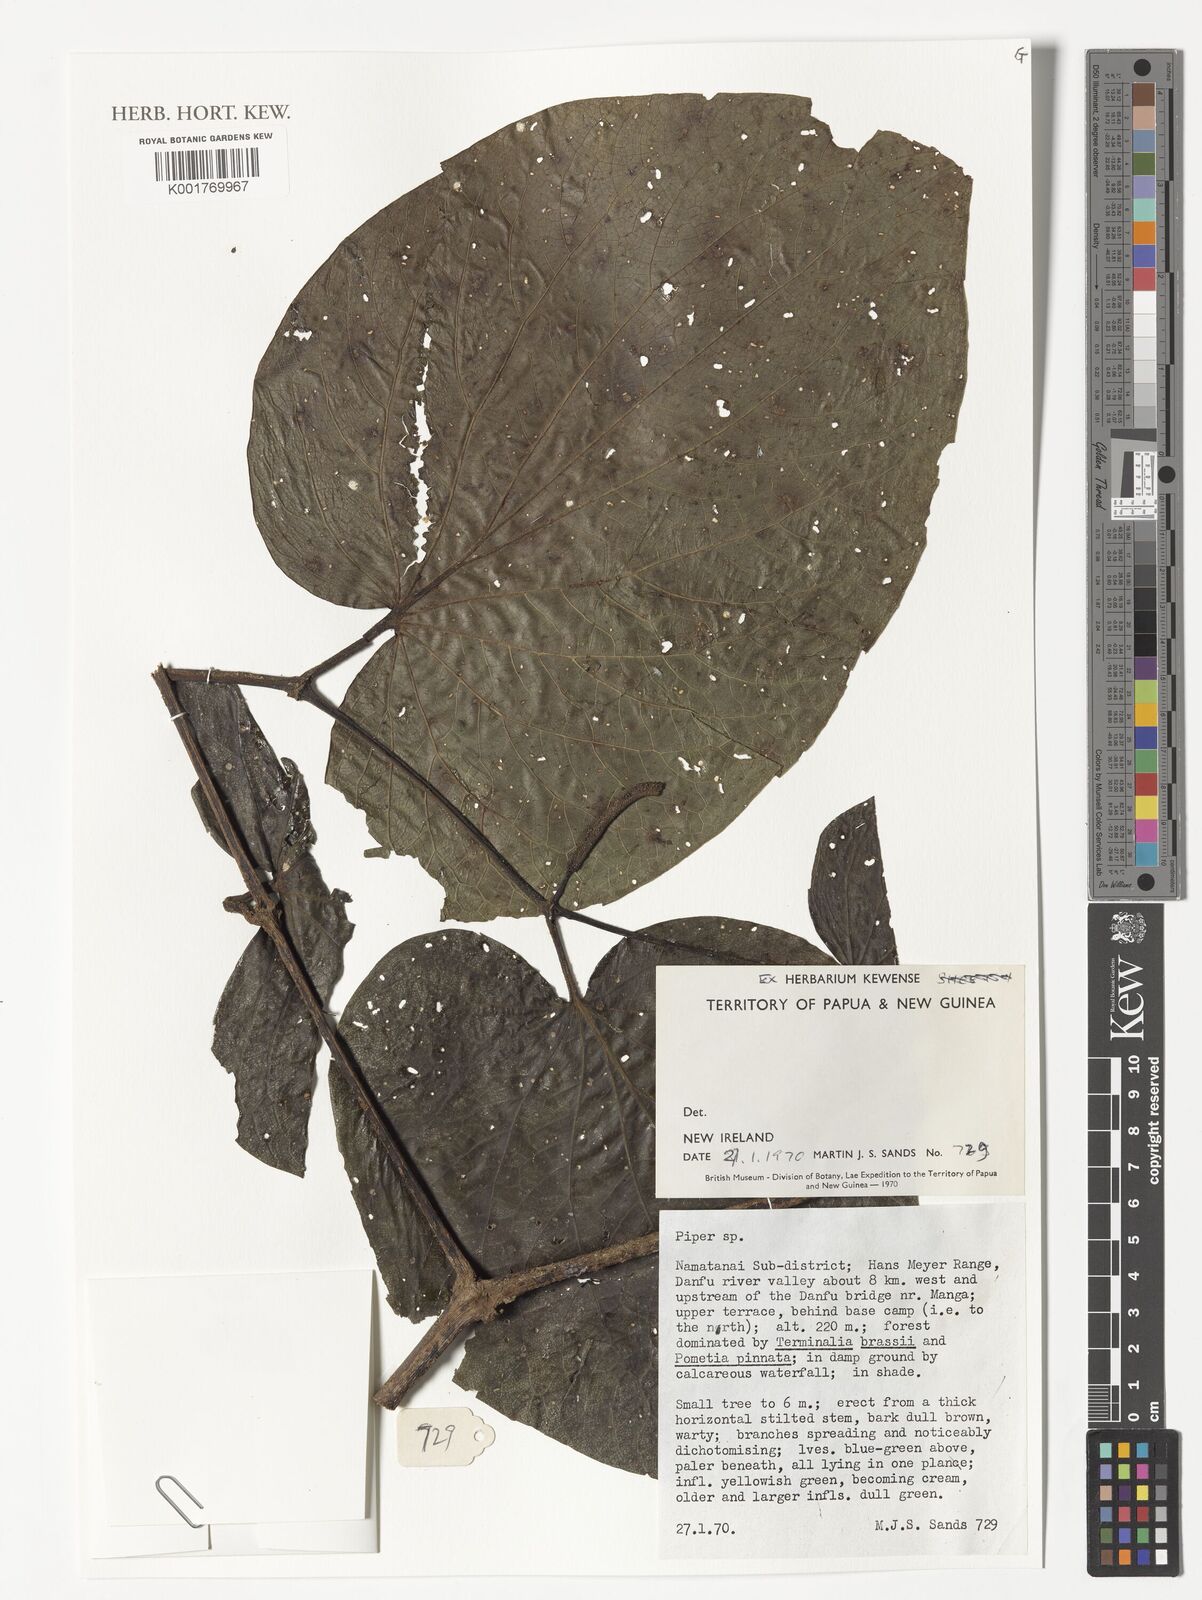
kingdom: Plantae
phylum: Tracheophyta
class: Magnoliopsida
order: Piperales
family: Piperaceae
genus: Piper
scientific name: Piper
